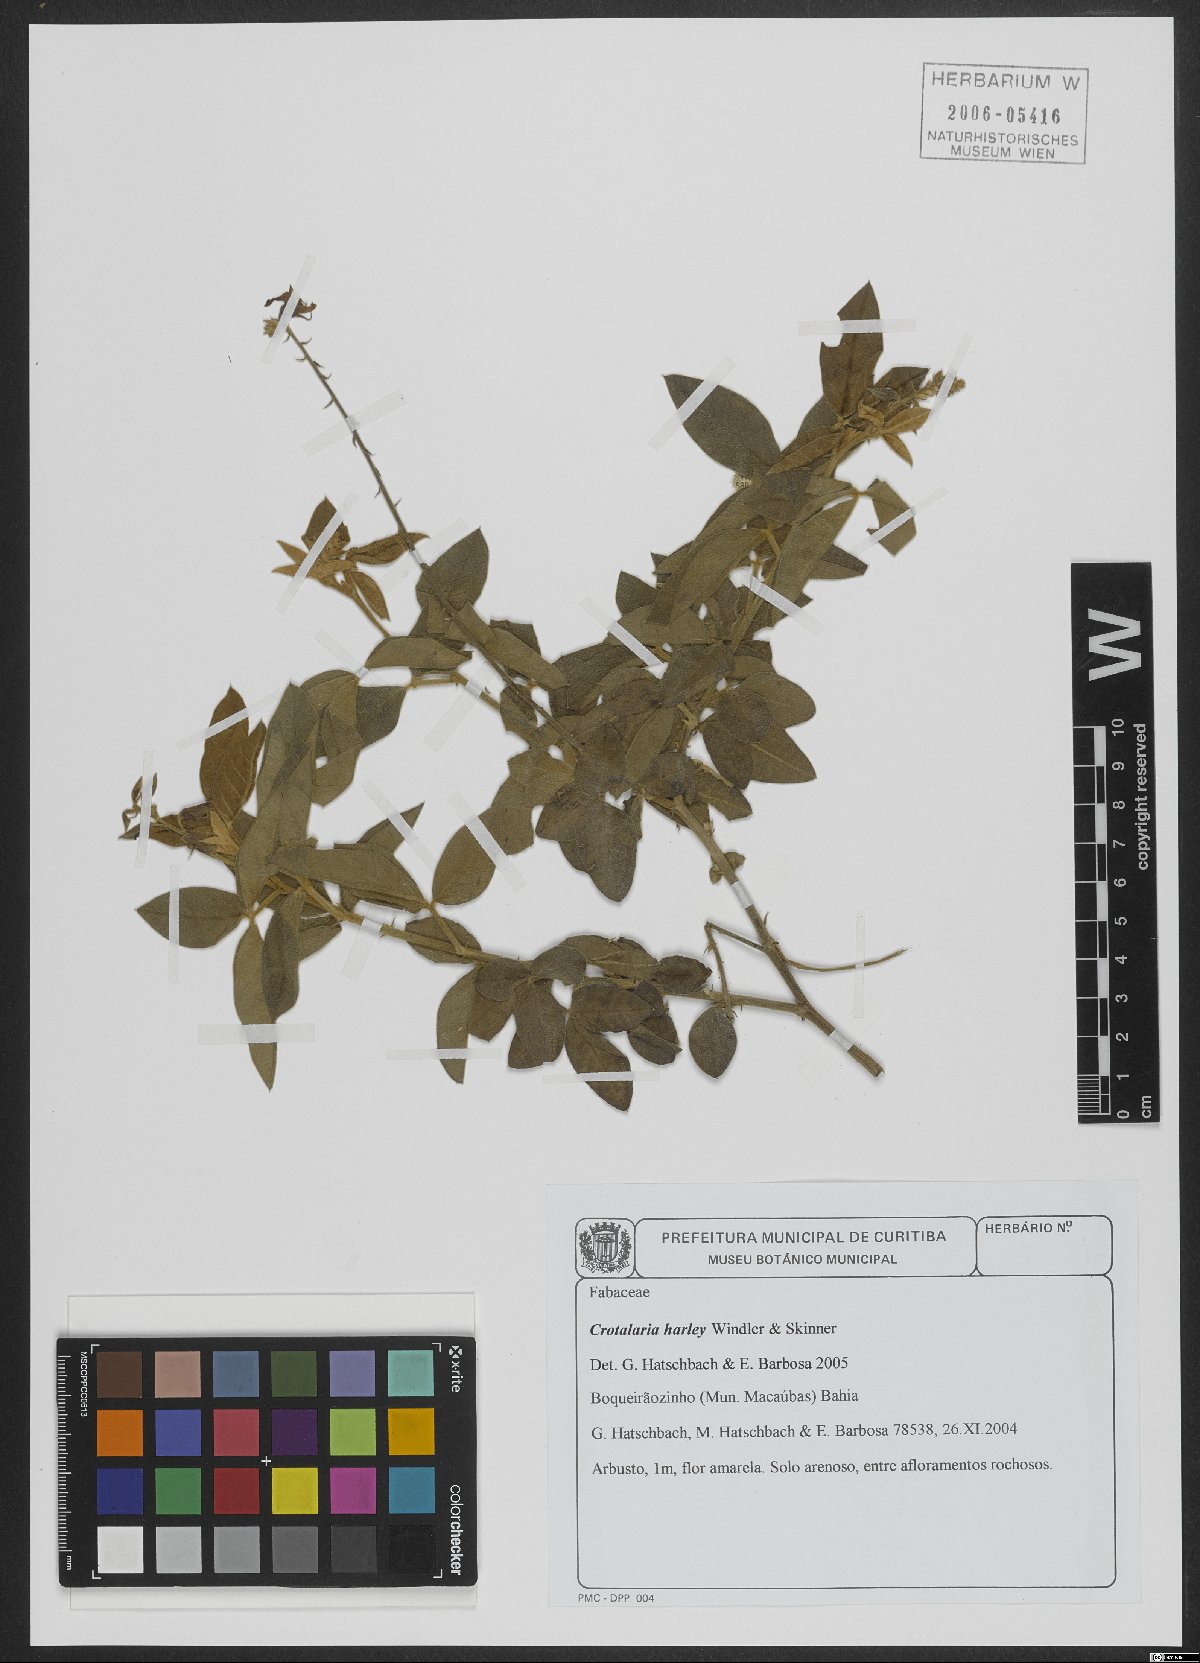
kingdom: Plantae
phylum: Tracheophyta
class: Magnoliopsida
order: Fabales
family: Fabaceae
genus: Crotalaria
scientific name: Crotalaria harleyi
